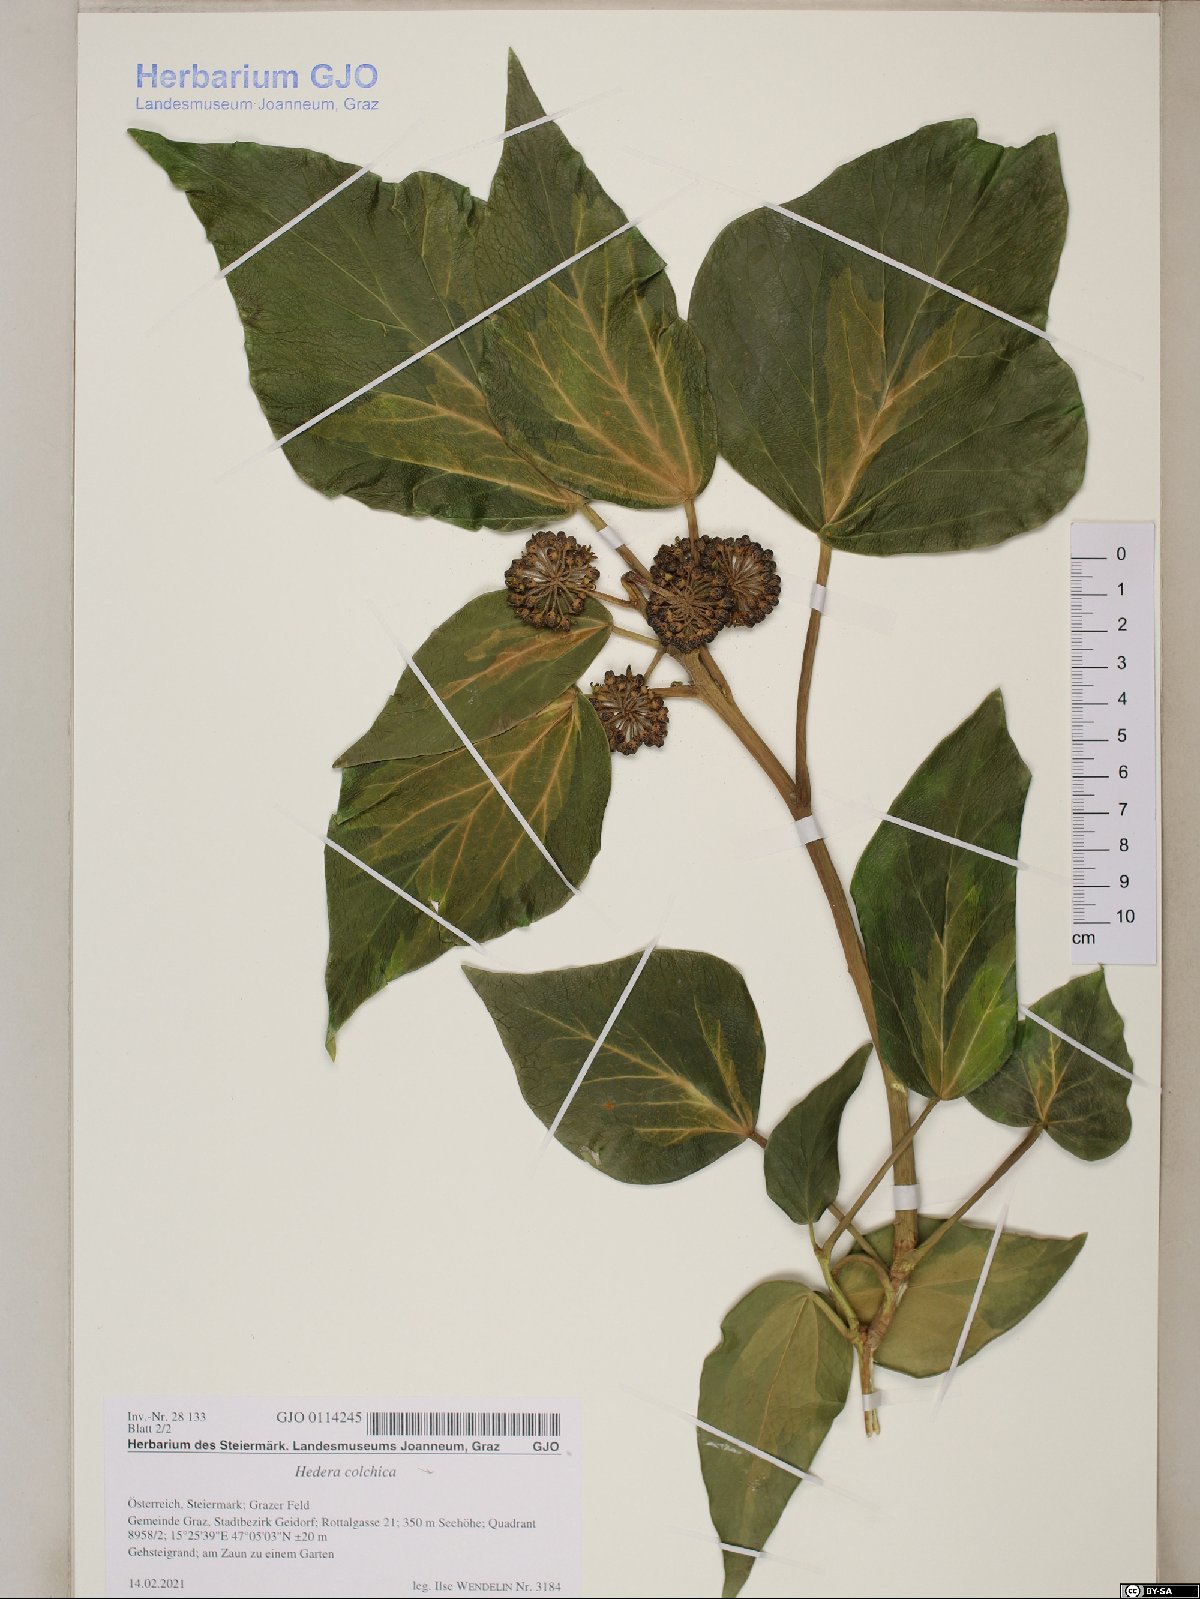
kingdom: Plantae
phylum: Tracheophyta
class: Magnoliopsida
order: Apiales
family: Araliaceae
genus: Hedera
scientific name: Hedera colchica
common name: Persian ivy
